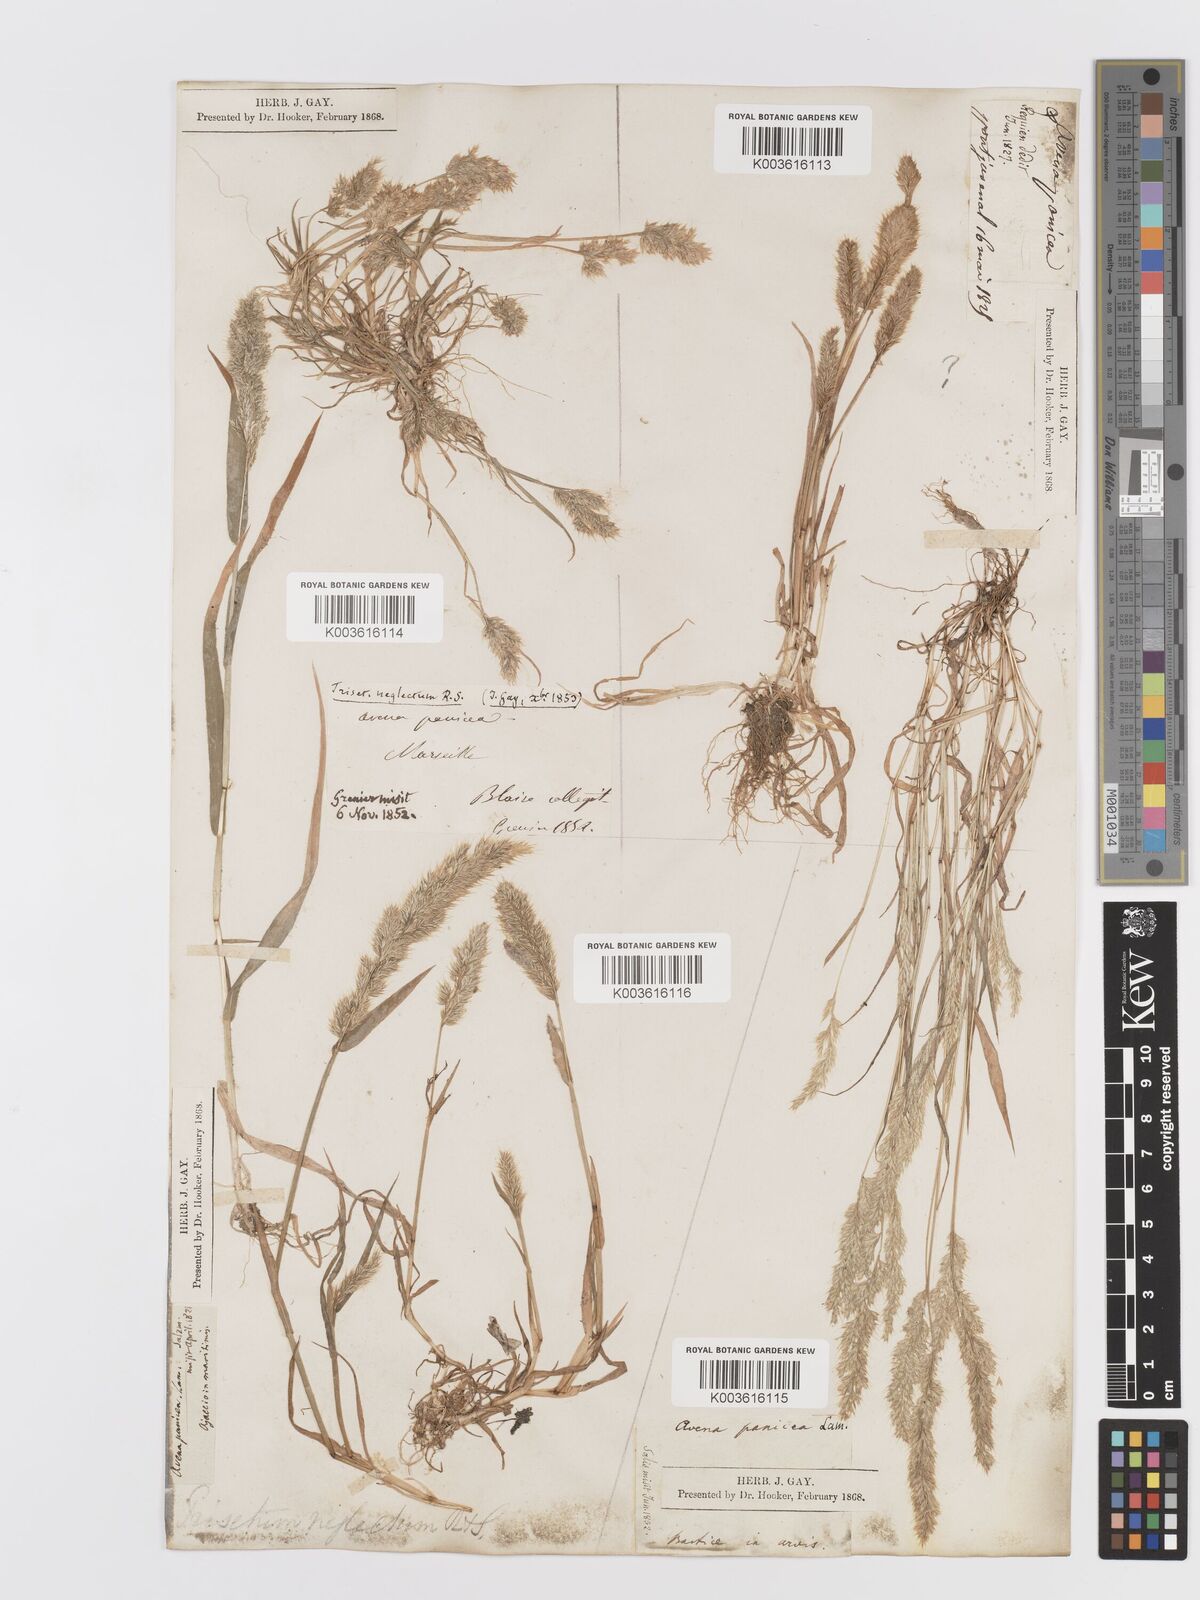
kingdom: Plantae
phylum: Tracheophyta
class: Liliopsida
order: Poales
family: Poaceae
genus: Trisetaria
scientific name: Trisetaria panicea
